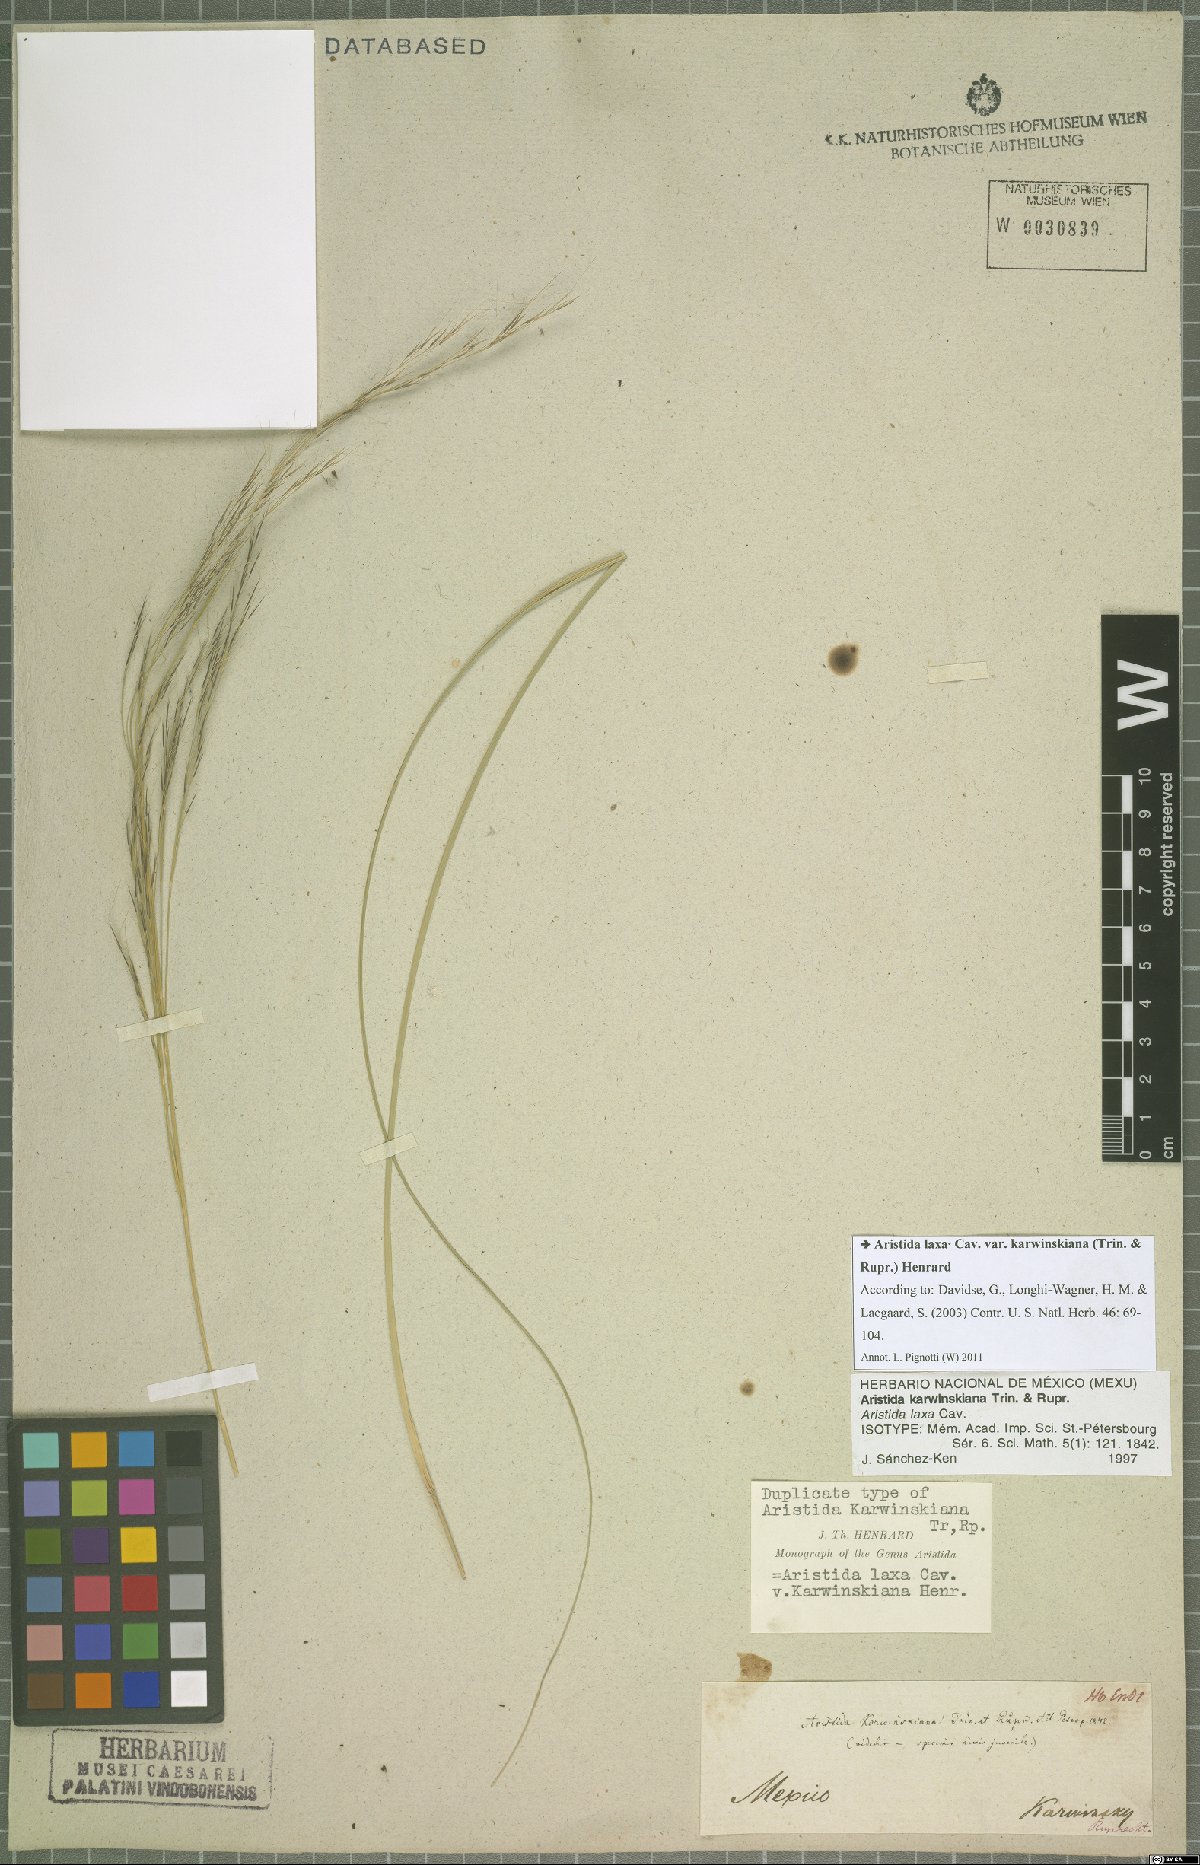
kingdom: Plantae
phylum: Tracheophyta
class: Liliopsida
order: Poales
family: Poaceae
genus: Aristida
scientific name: Aristida laxa
